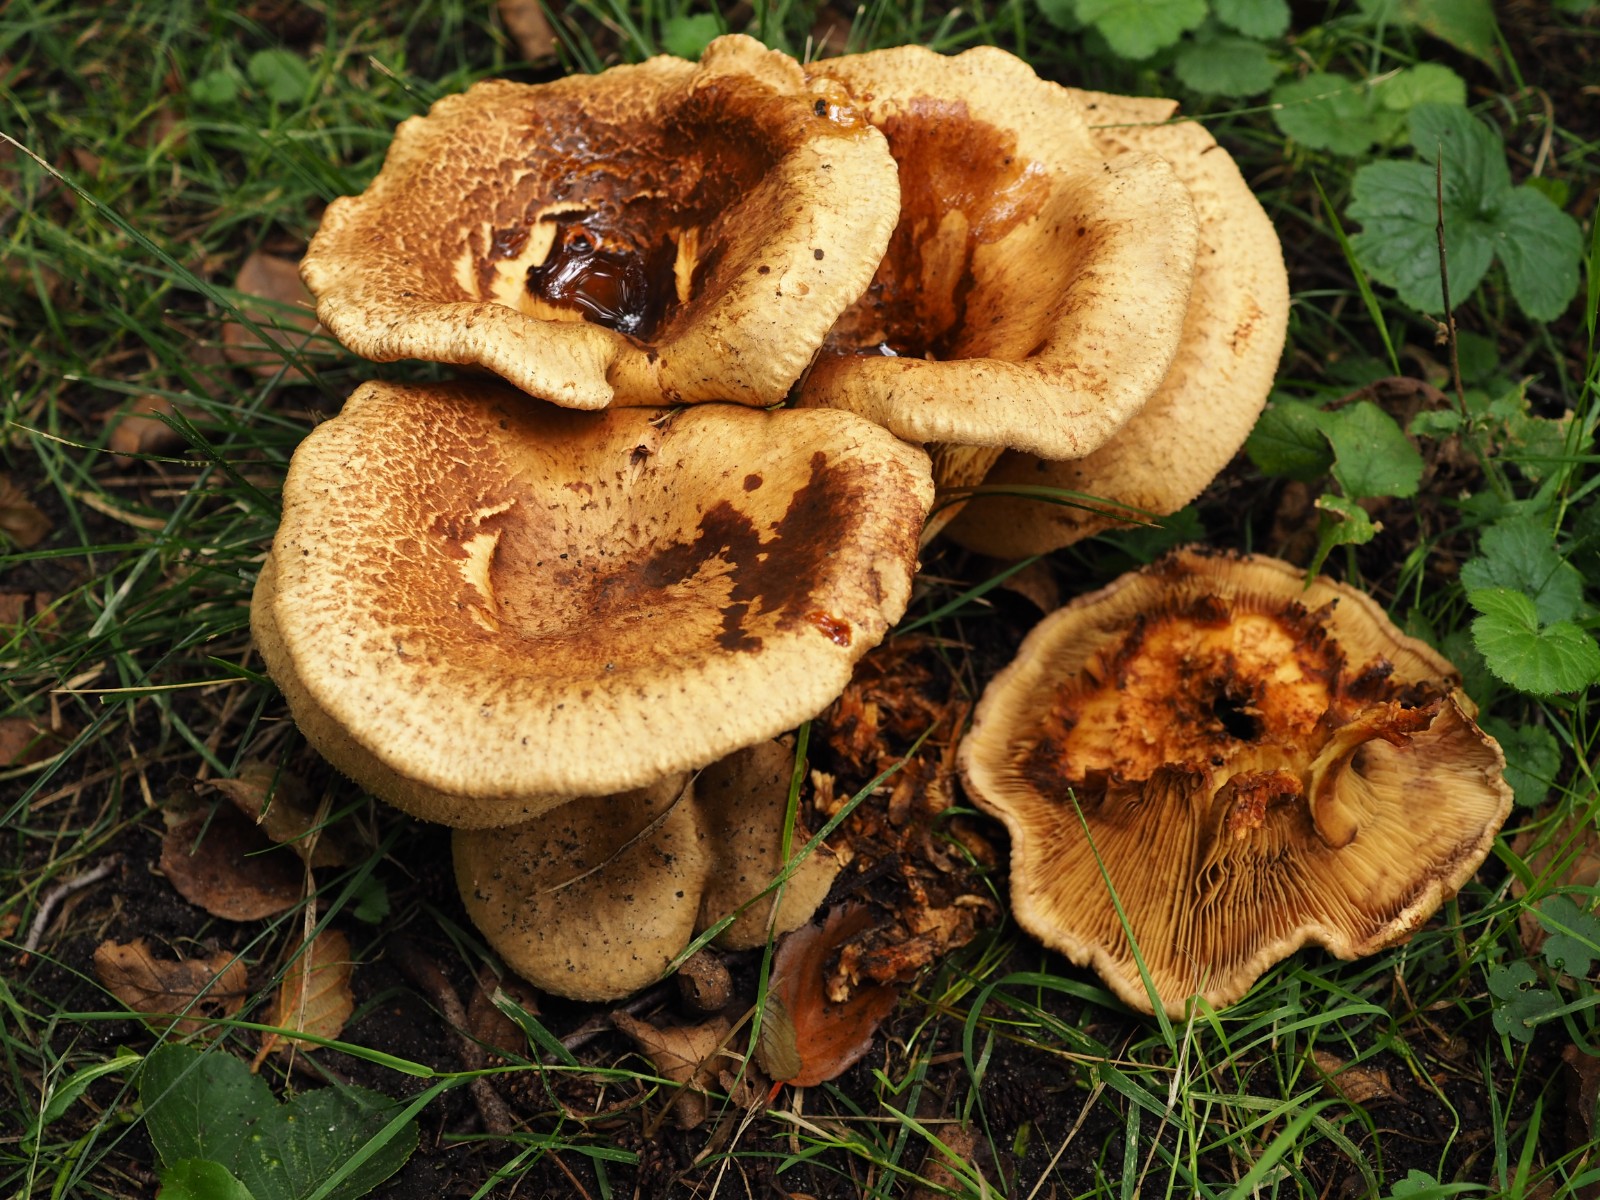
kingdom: Fungi
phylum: Basidiomycota
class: Agaricomycetes
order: Boletales
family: Paxillaceae
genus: Paxillus
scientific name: Paxillus rubicundulus
